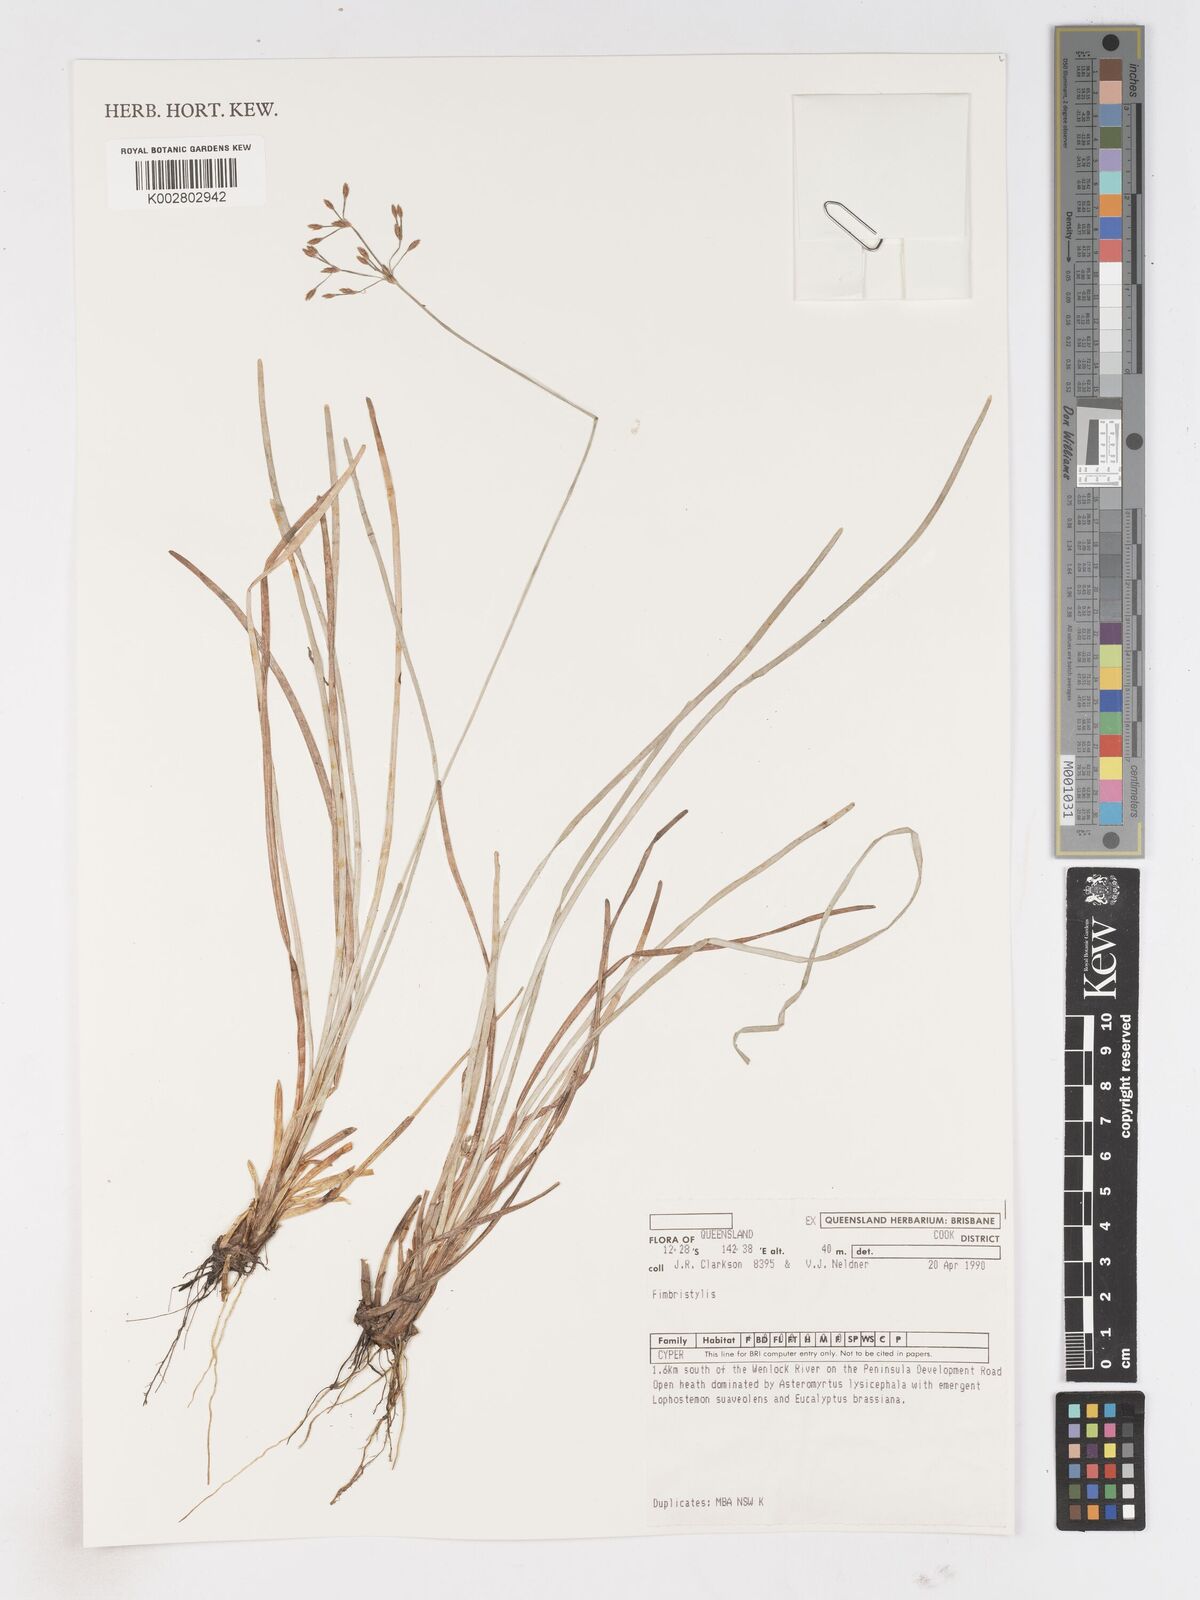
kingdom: Plantae
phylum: Tracheophyta
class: Liliopsida
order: Poales
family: Cyperaceae
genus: Fimbristylis
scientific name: Fimbristylis
